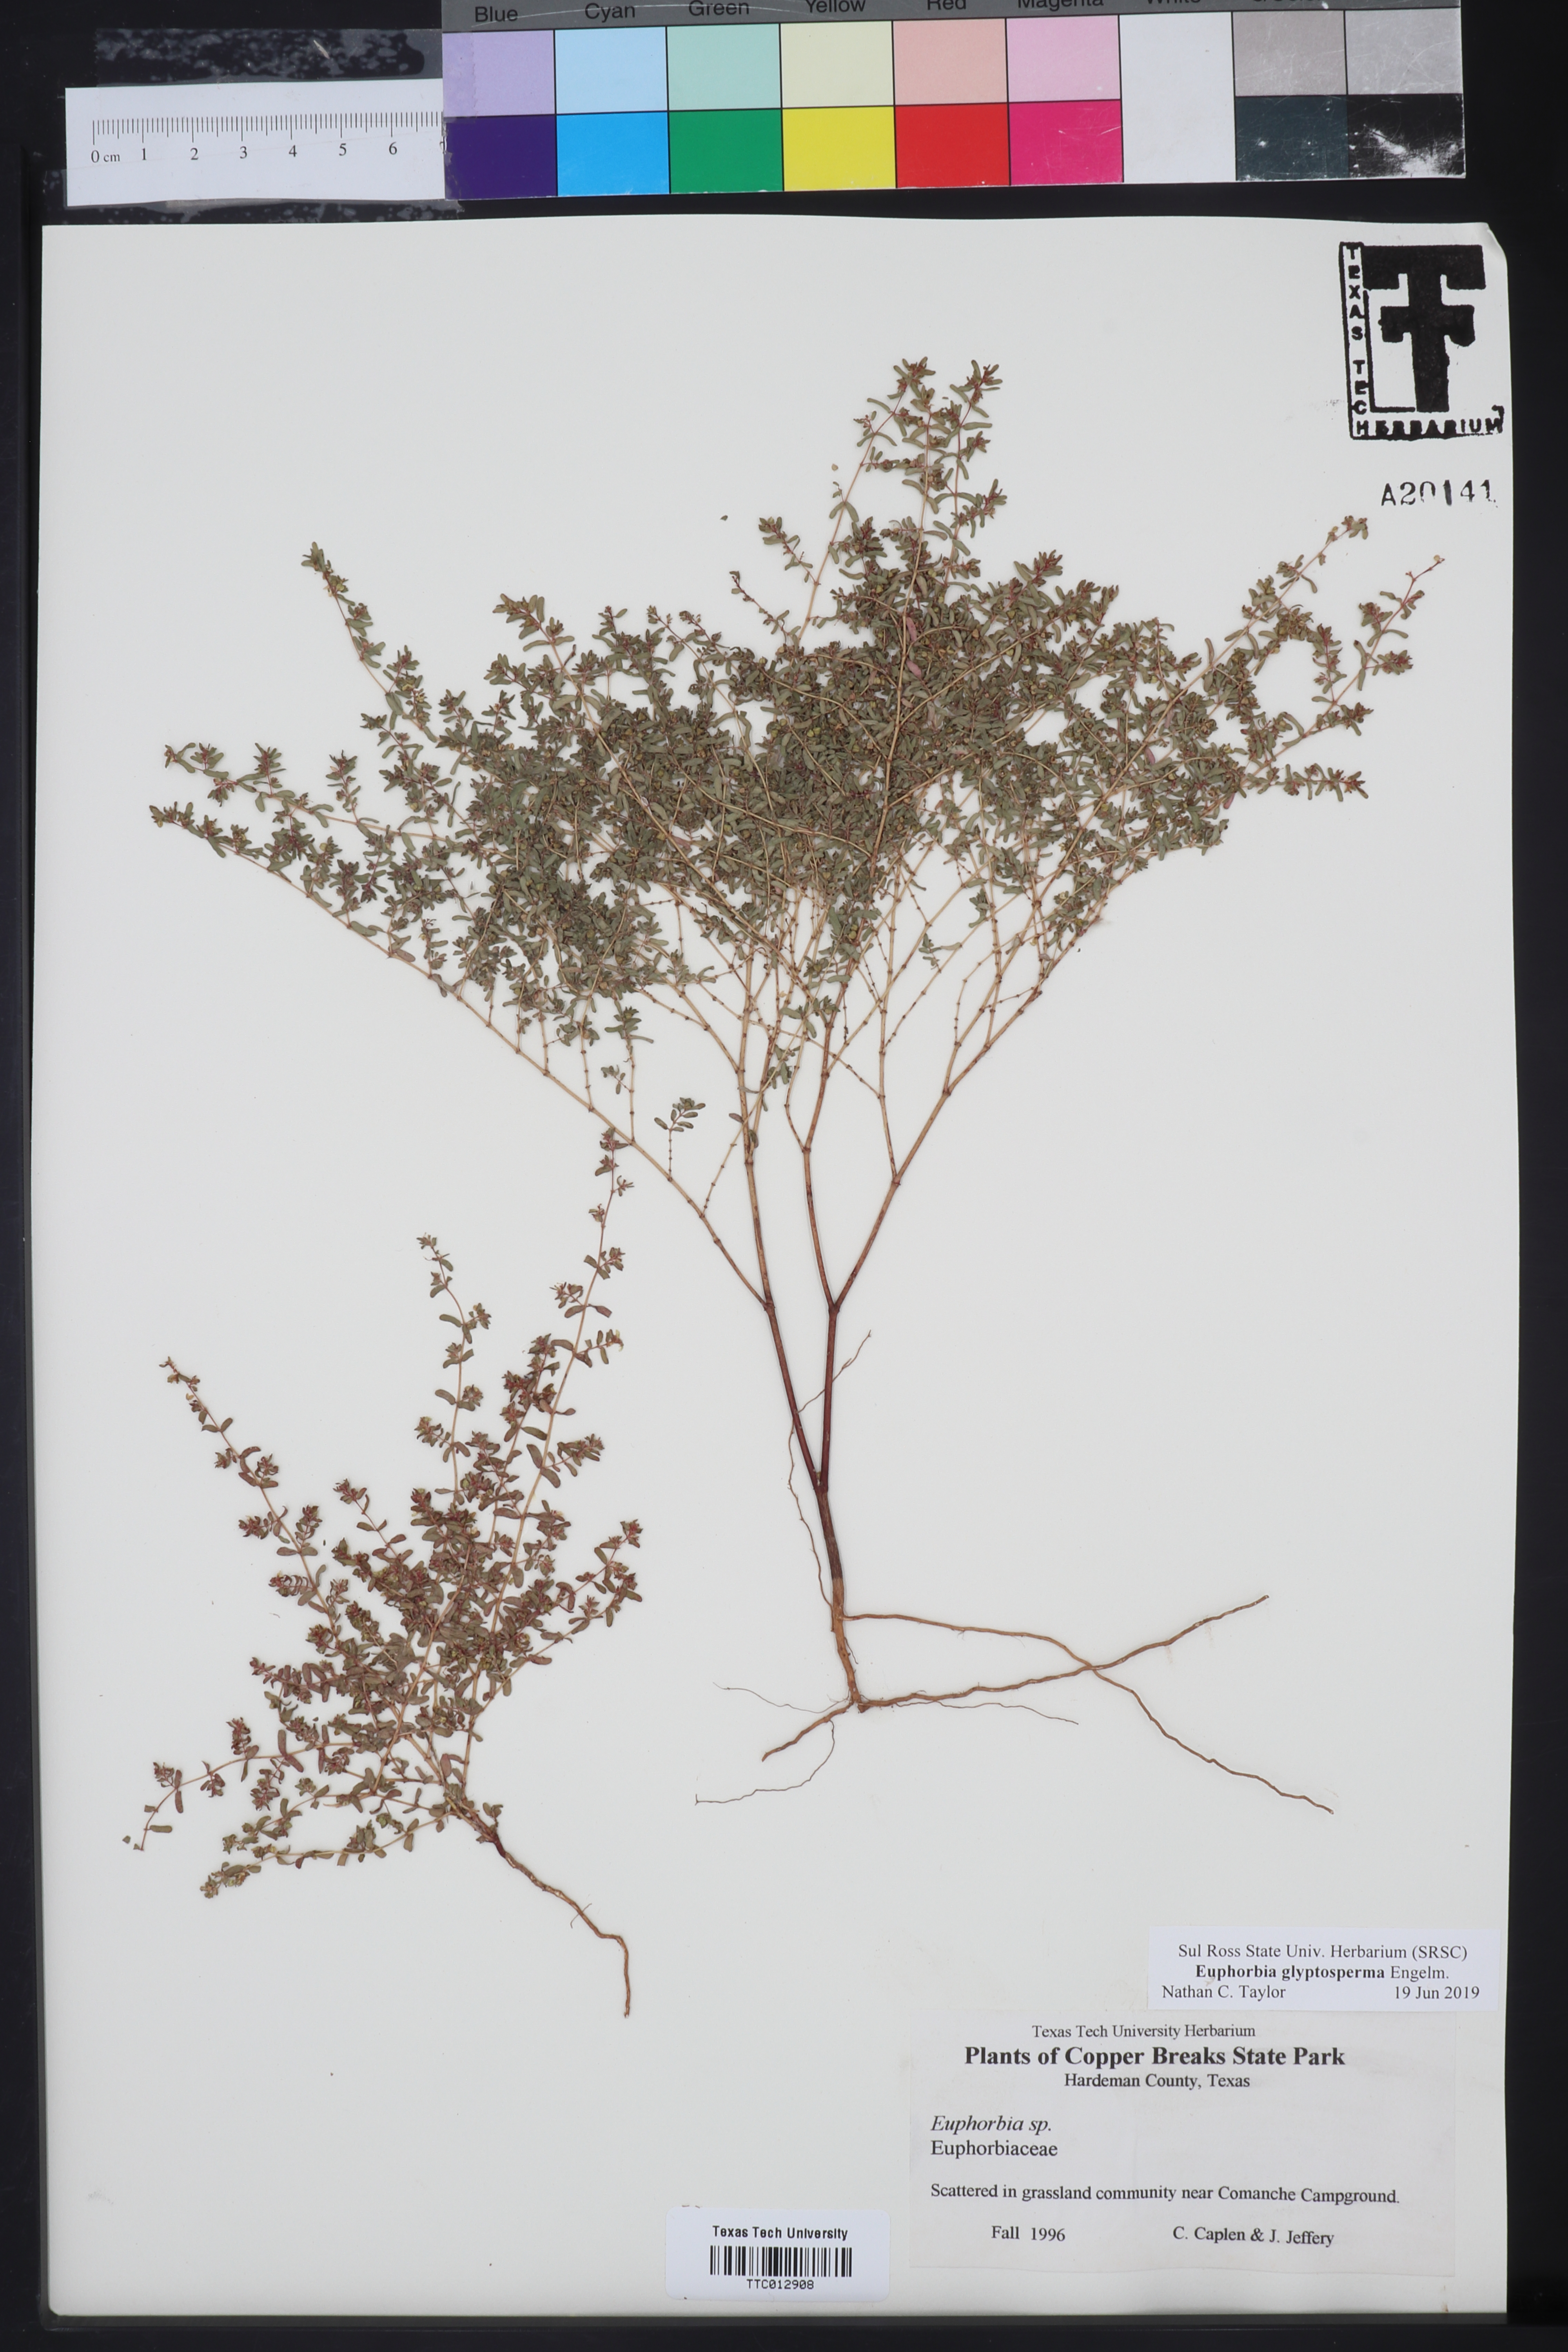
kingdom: Plantae
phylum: Tracheophyta
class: Magnoliopsida
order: Malpighiales
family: Euphorbiaceae
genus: Euphorbia
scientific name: Euphorbia glyptosperma
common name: Corrugate-seeded spurge
